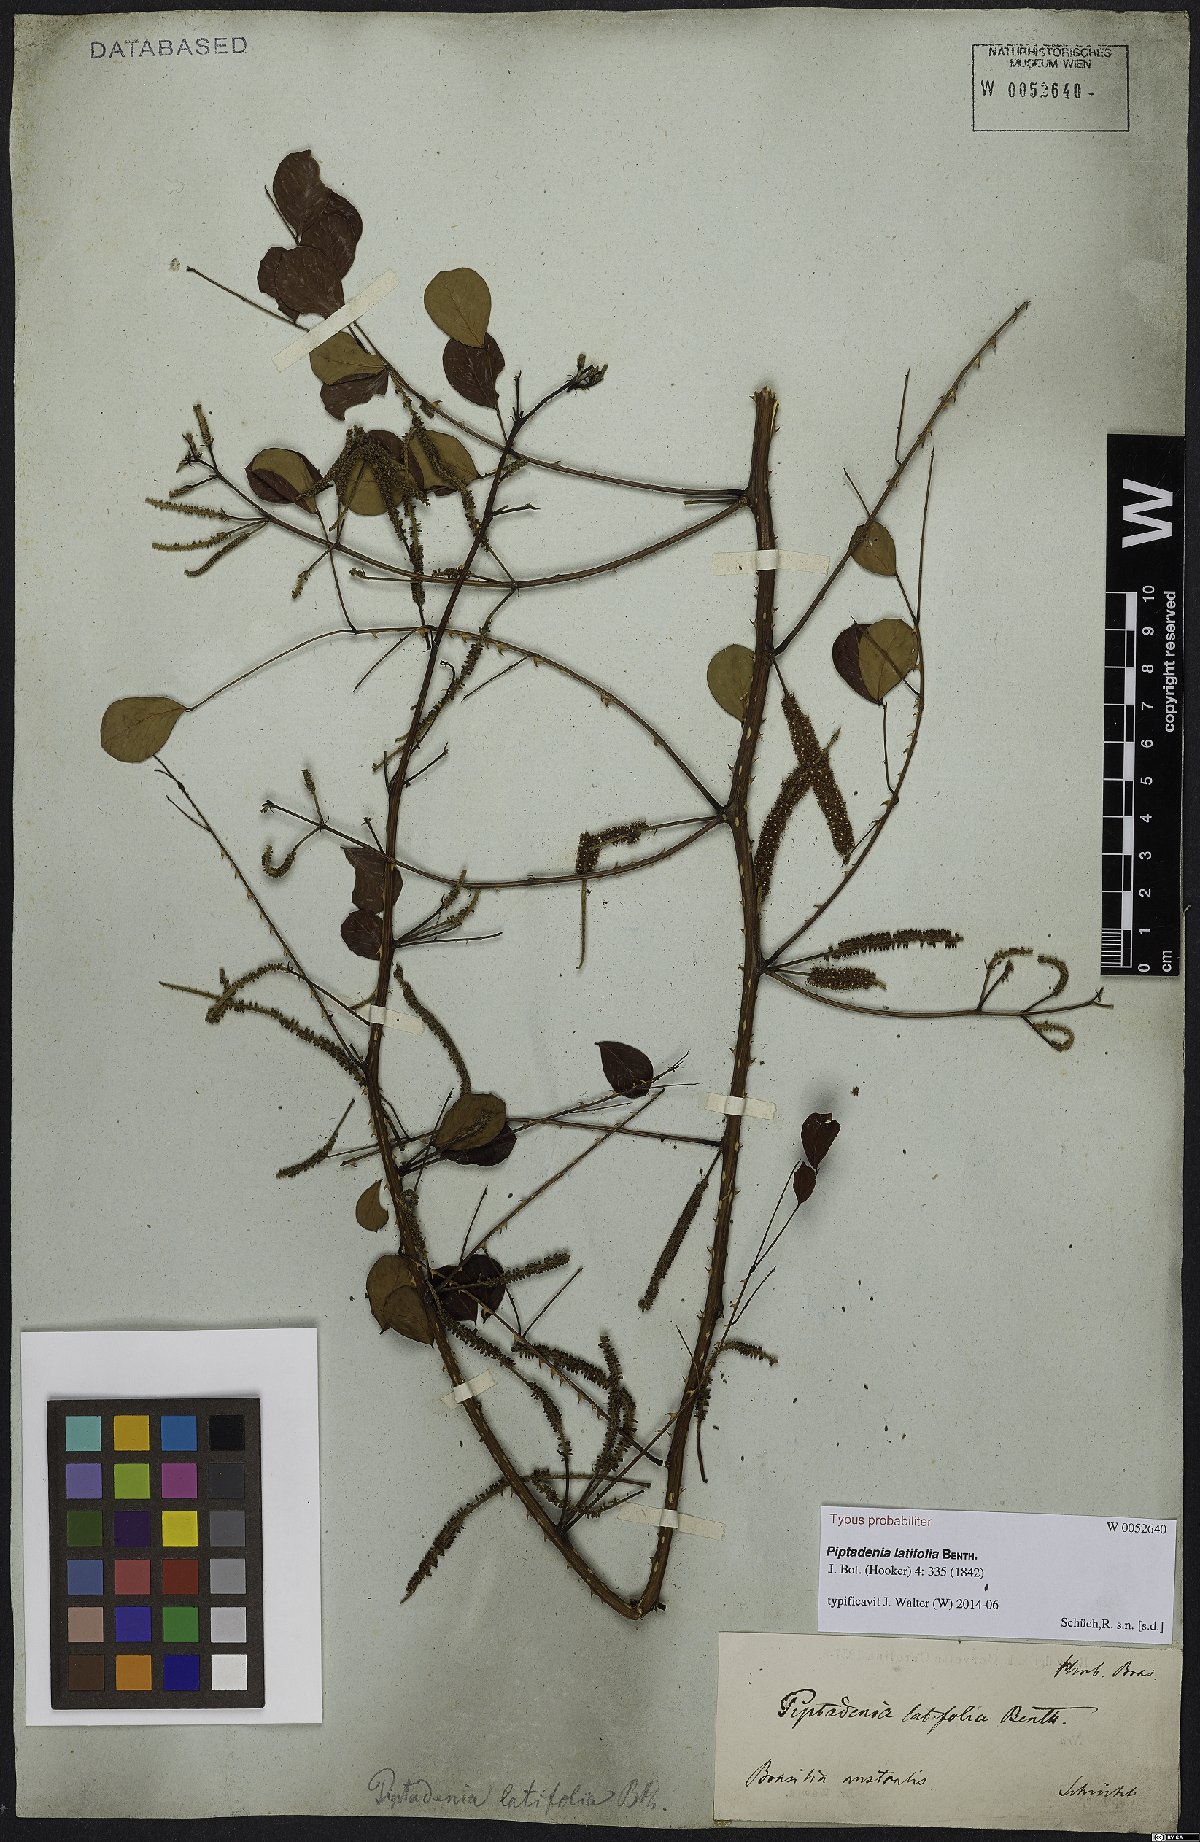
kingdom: Plantae
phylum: Tracheophyta
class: Magnoliopsida
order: Fabales
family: Fabaceae
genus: Piptadenia
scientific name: Piptadenia adiantoides
